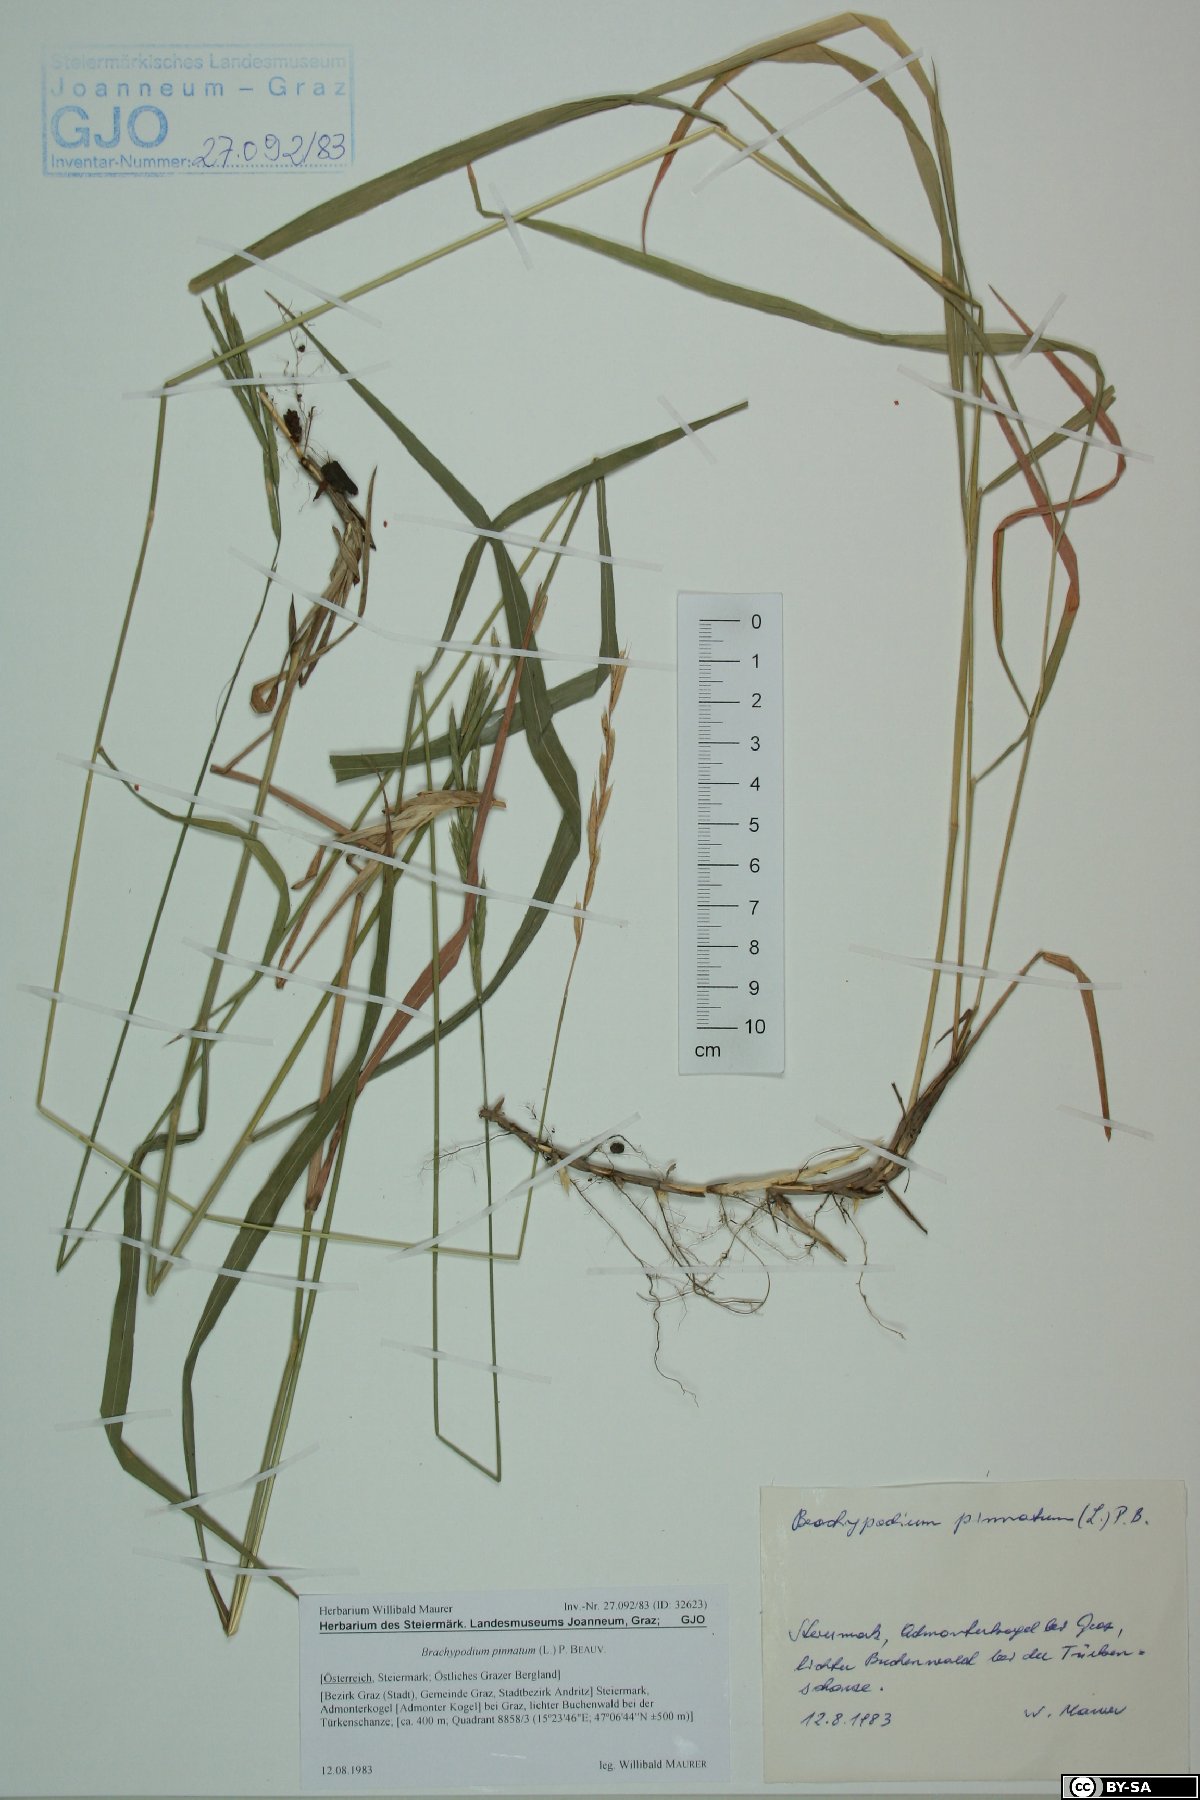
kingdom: Plantae
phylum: Tracheophyta
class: Liliopsida
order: Poales
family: Poaceae
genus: Brachypodium
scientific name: Brachypodium pinnatum
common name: Tor grass
